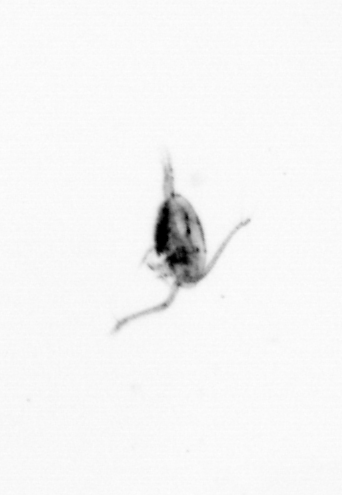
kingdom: Animalia
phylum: Arthropoda
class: Copepoda
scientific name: Copepoda
